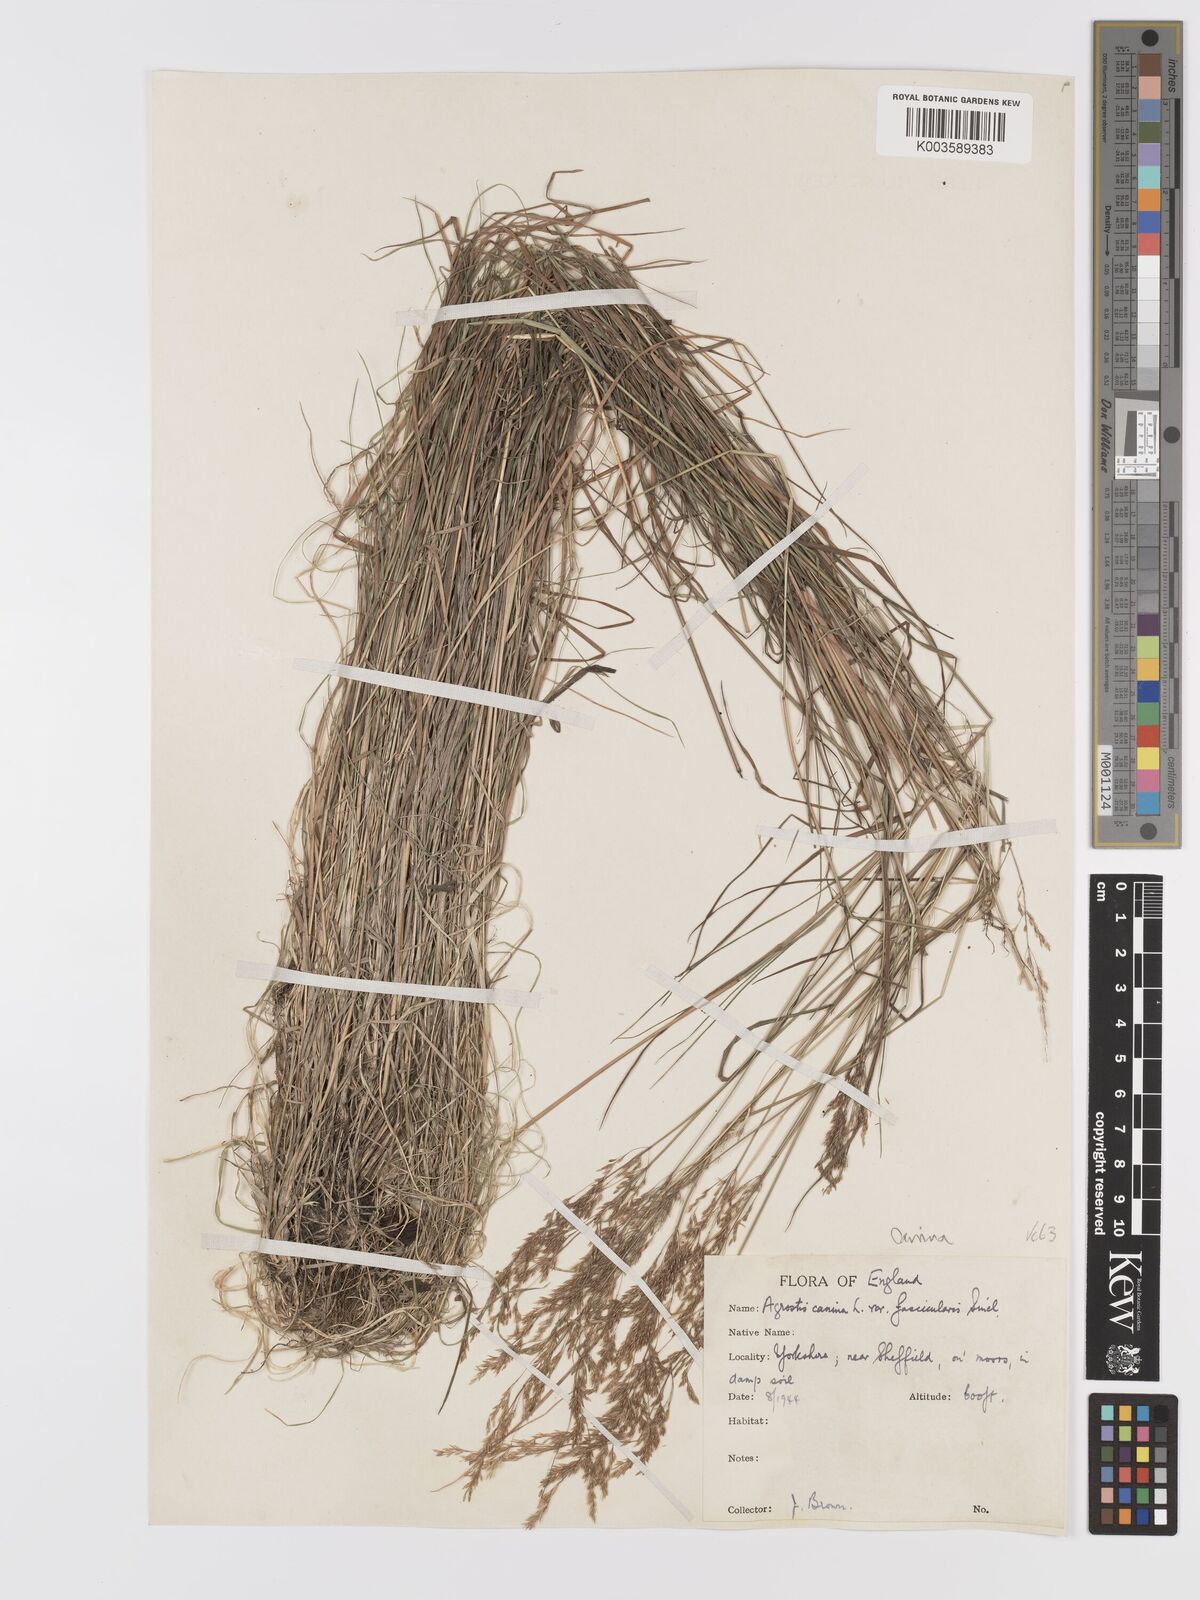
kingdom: Plantae
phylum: Tracheophyta
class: Liliopsida
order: Poales
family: Poaceae
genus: Agrostis
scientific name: Agrostis canina
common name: Velvet bent
